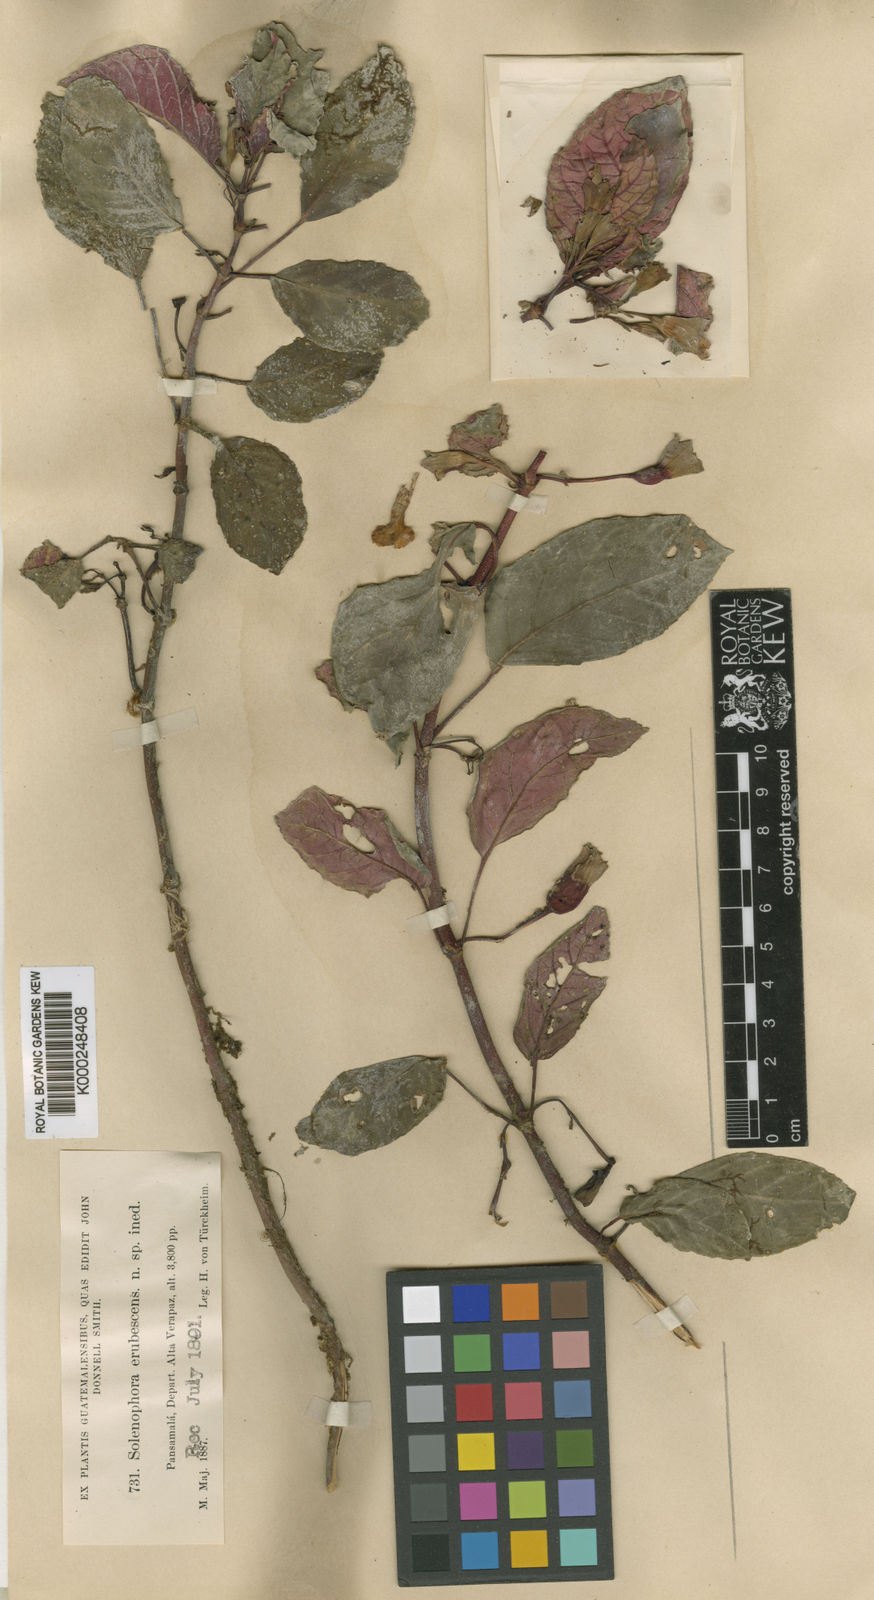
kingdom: Plantae
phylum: Tracheophyta
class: Magnoliopsida
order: Lamiales
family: Gesneriaceae
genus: Solenophora
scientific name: Solenophora erubescens
